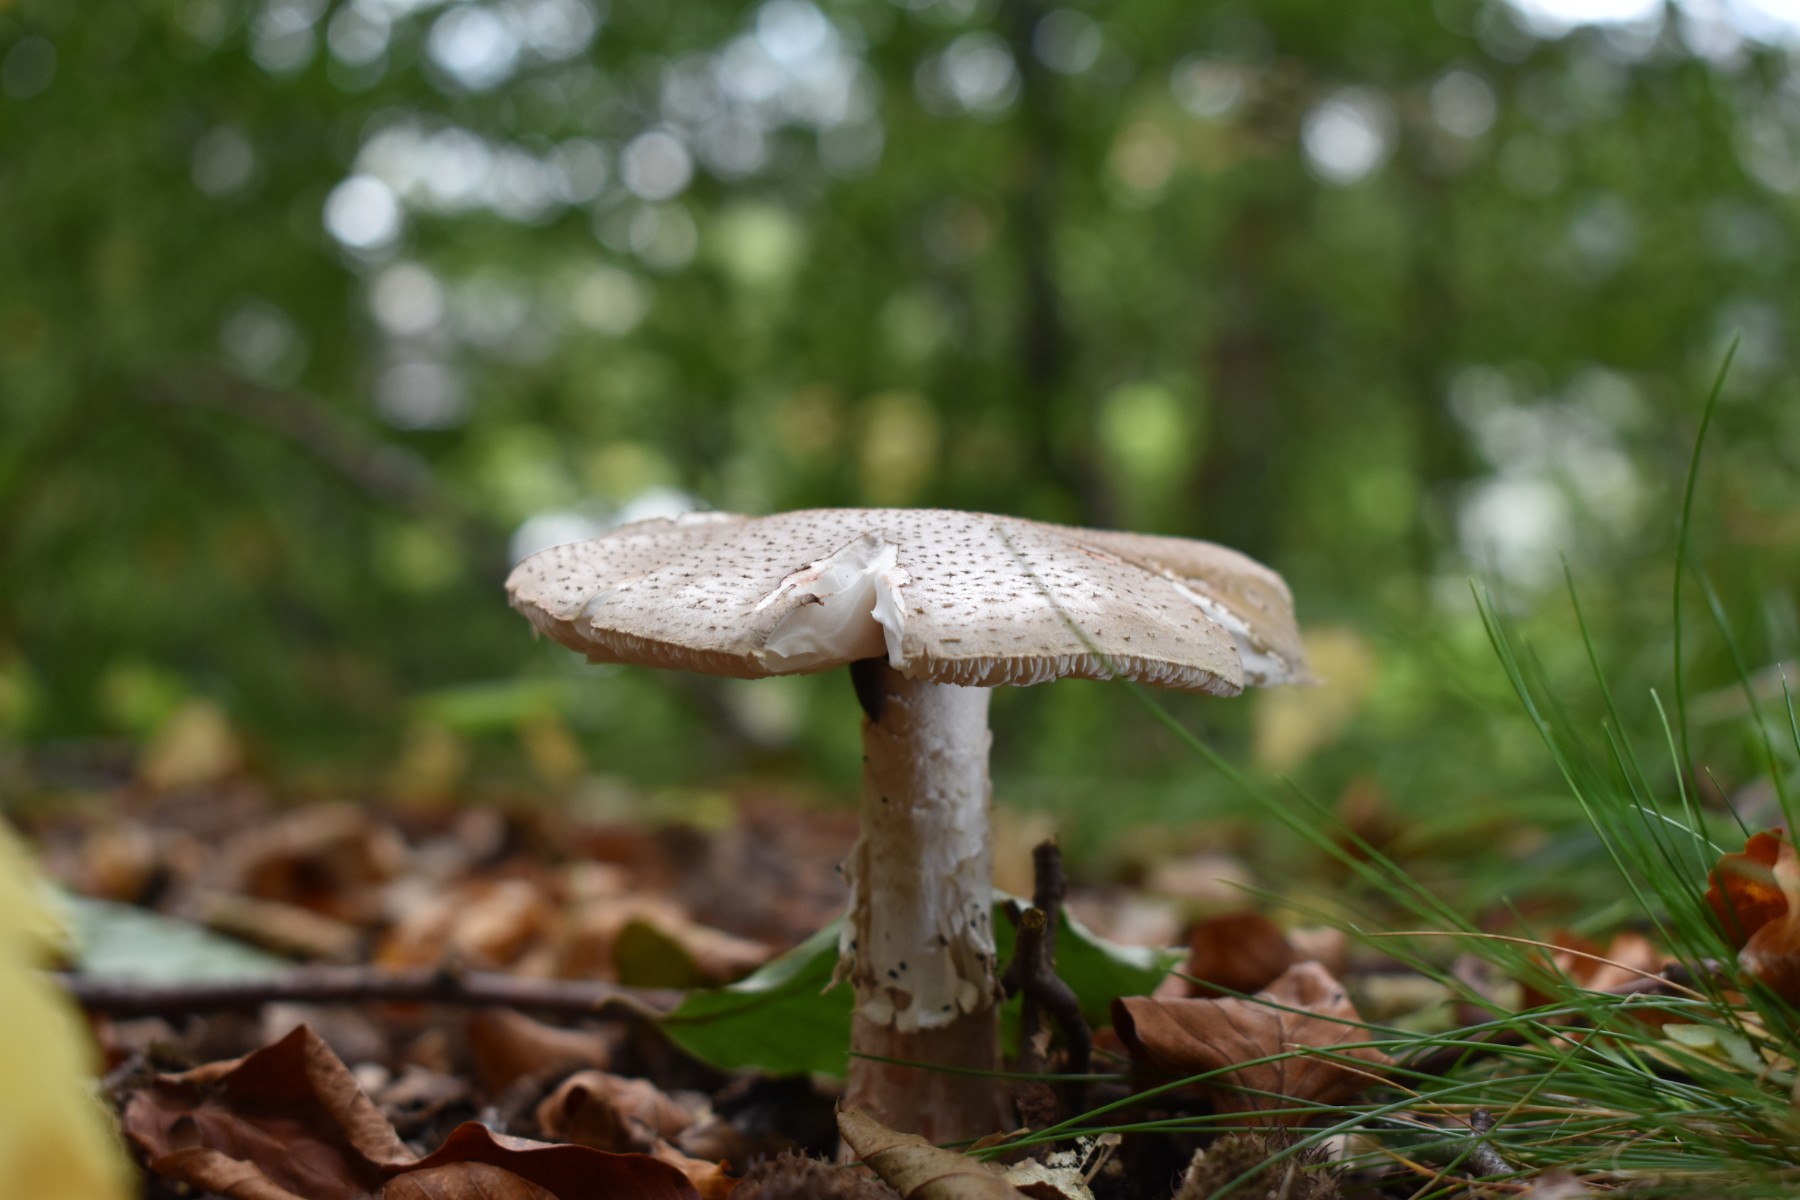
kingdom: Fungi
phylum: Basidiomycota
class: Agaricomycetes
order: Agaricales
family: Amanitaceae
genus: Amanita
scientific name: Amanita
